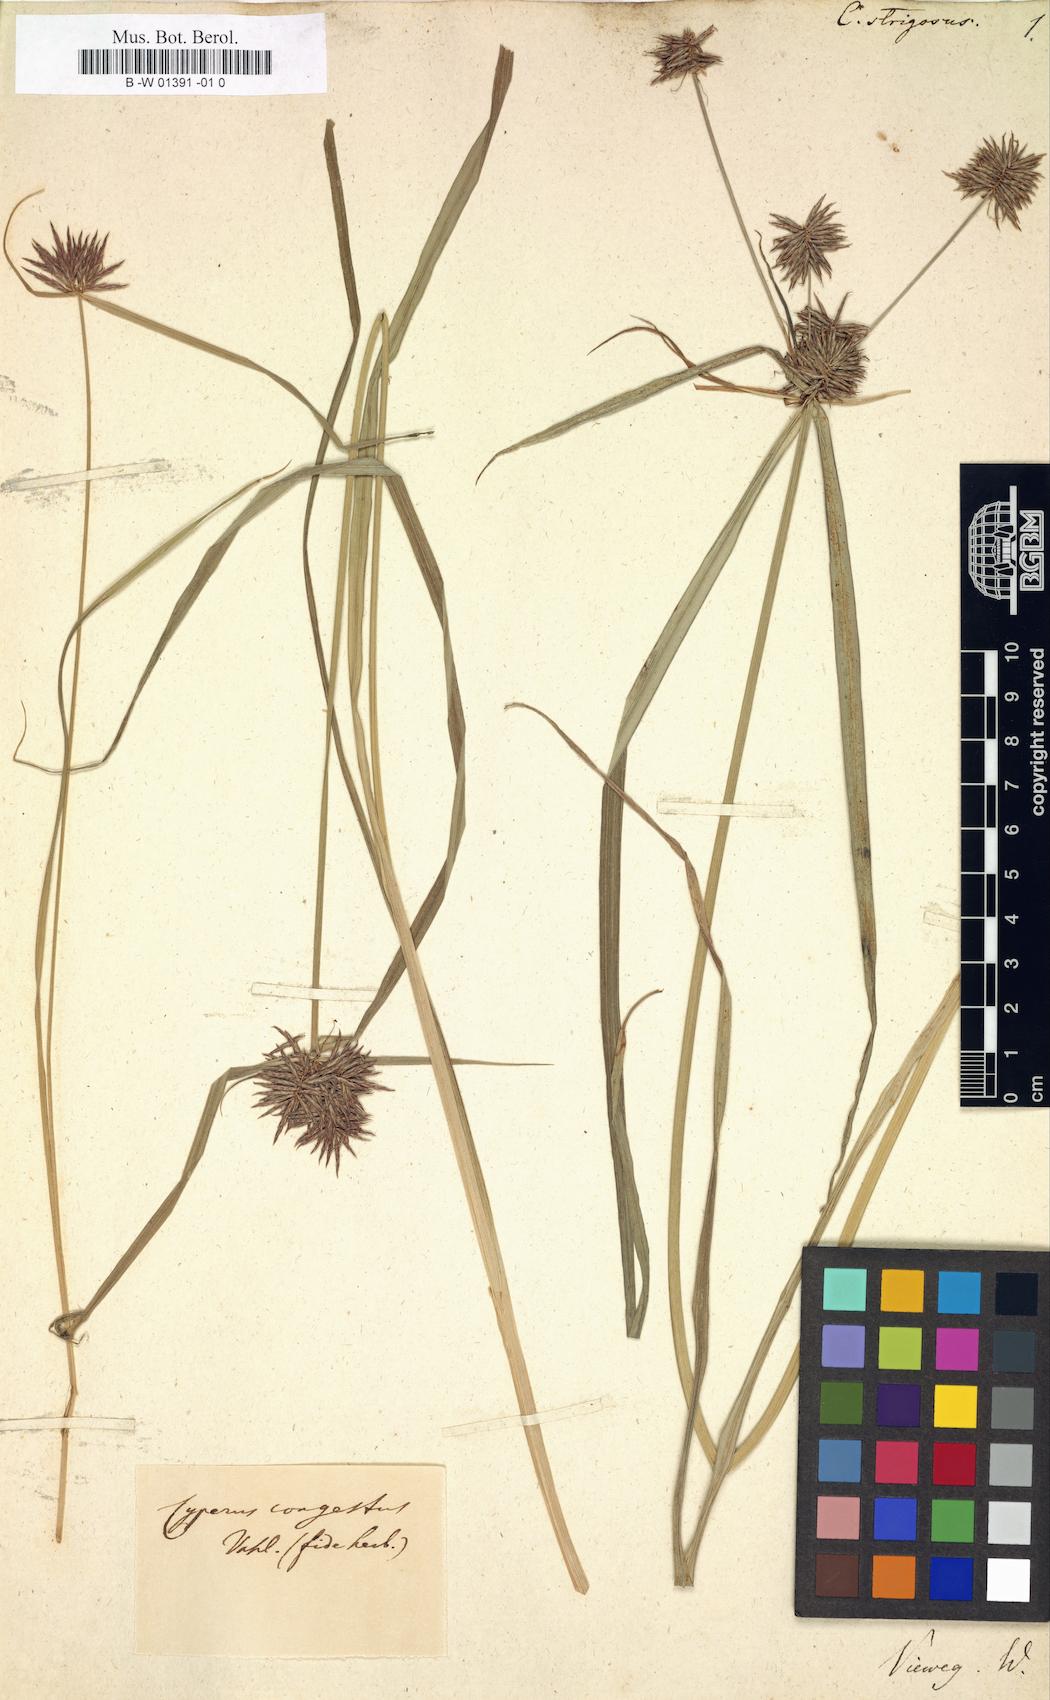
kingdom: Plantae
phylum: Tracheophyta
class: Liliopsida
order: Poales
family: Cyperaceae
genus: Cyperus
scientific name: Cyperus strigosus
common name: False nutsedge
